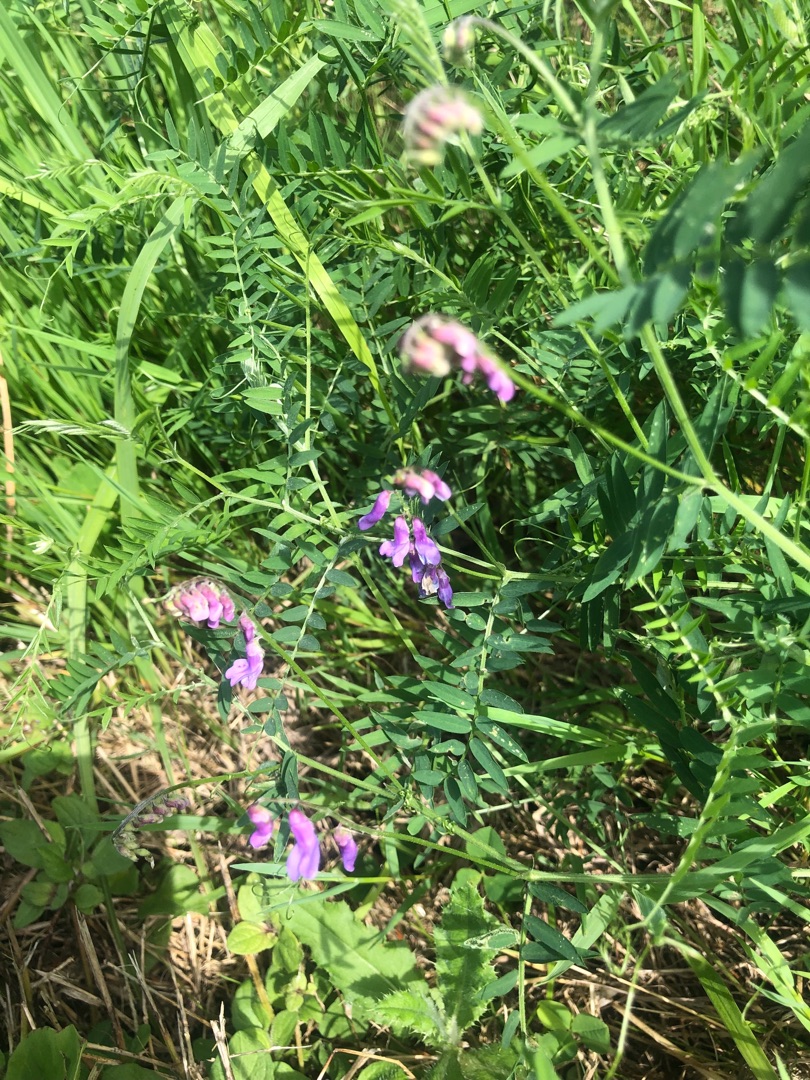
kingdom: Plantae
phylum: Tracheophyta
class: Magnoliopsida
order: Fabales
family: Fabaceae
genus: Vicia
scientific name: Vicia cracca
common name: Muse-vikke
